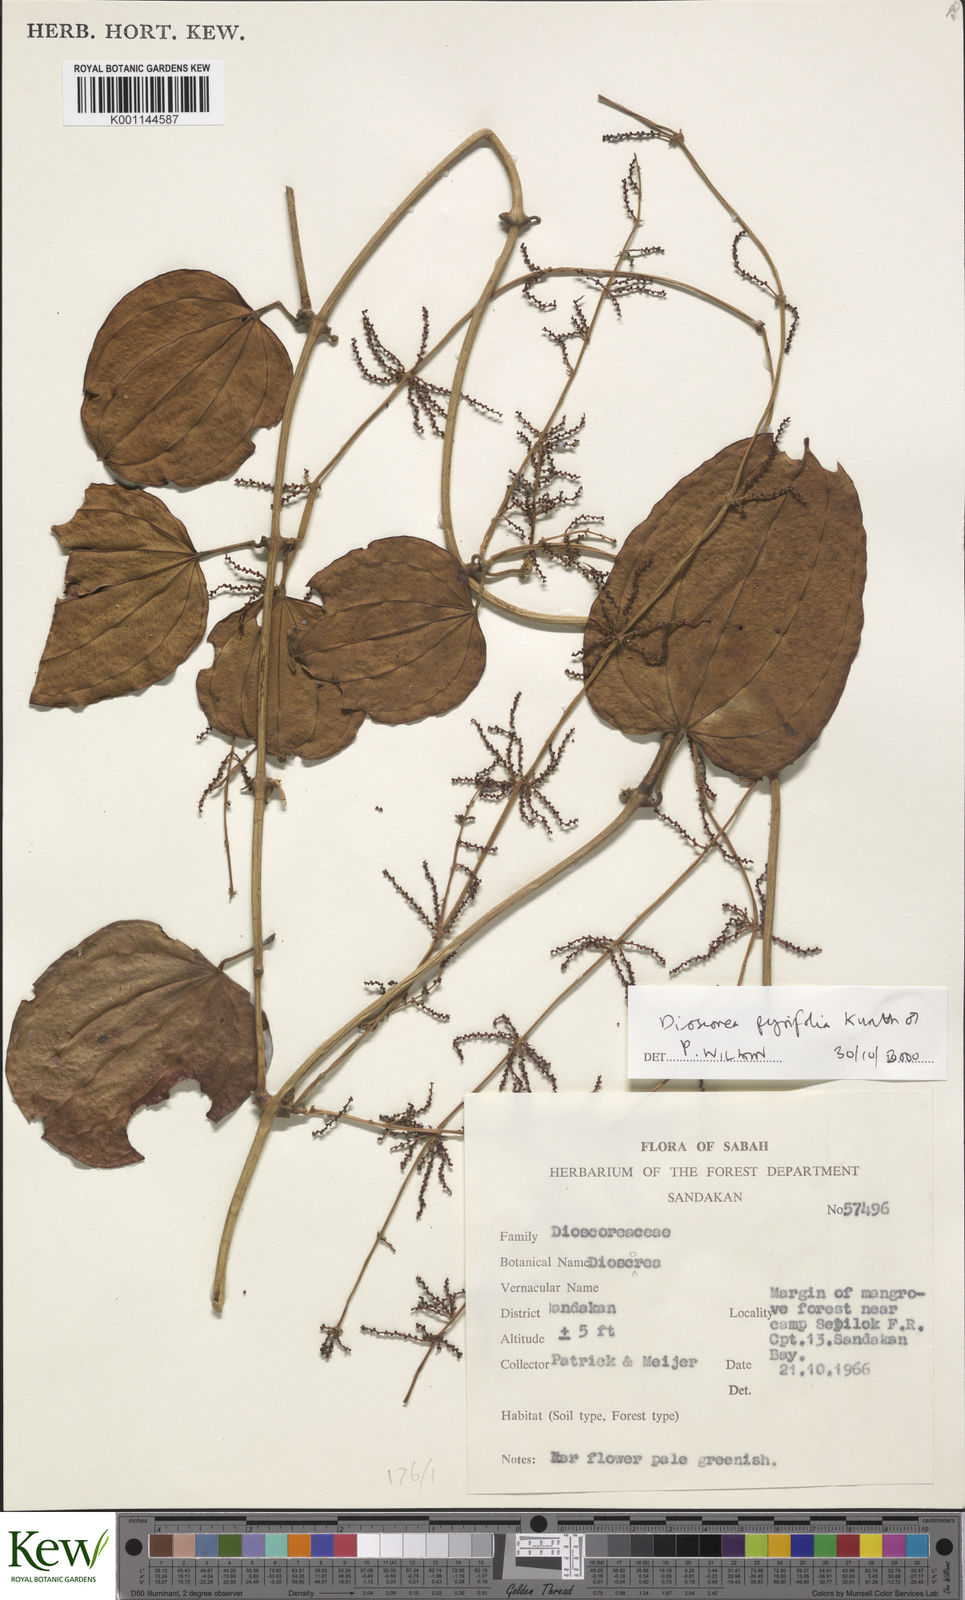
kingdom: Plantae
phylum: Tracheophyta
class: Liliopsida
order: Dioscoreales
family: Dioscoreaceae
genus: Dioscorea
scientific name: Dioscorea pyrifolia
